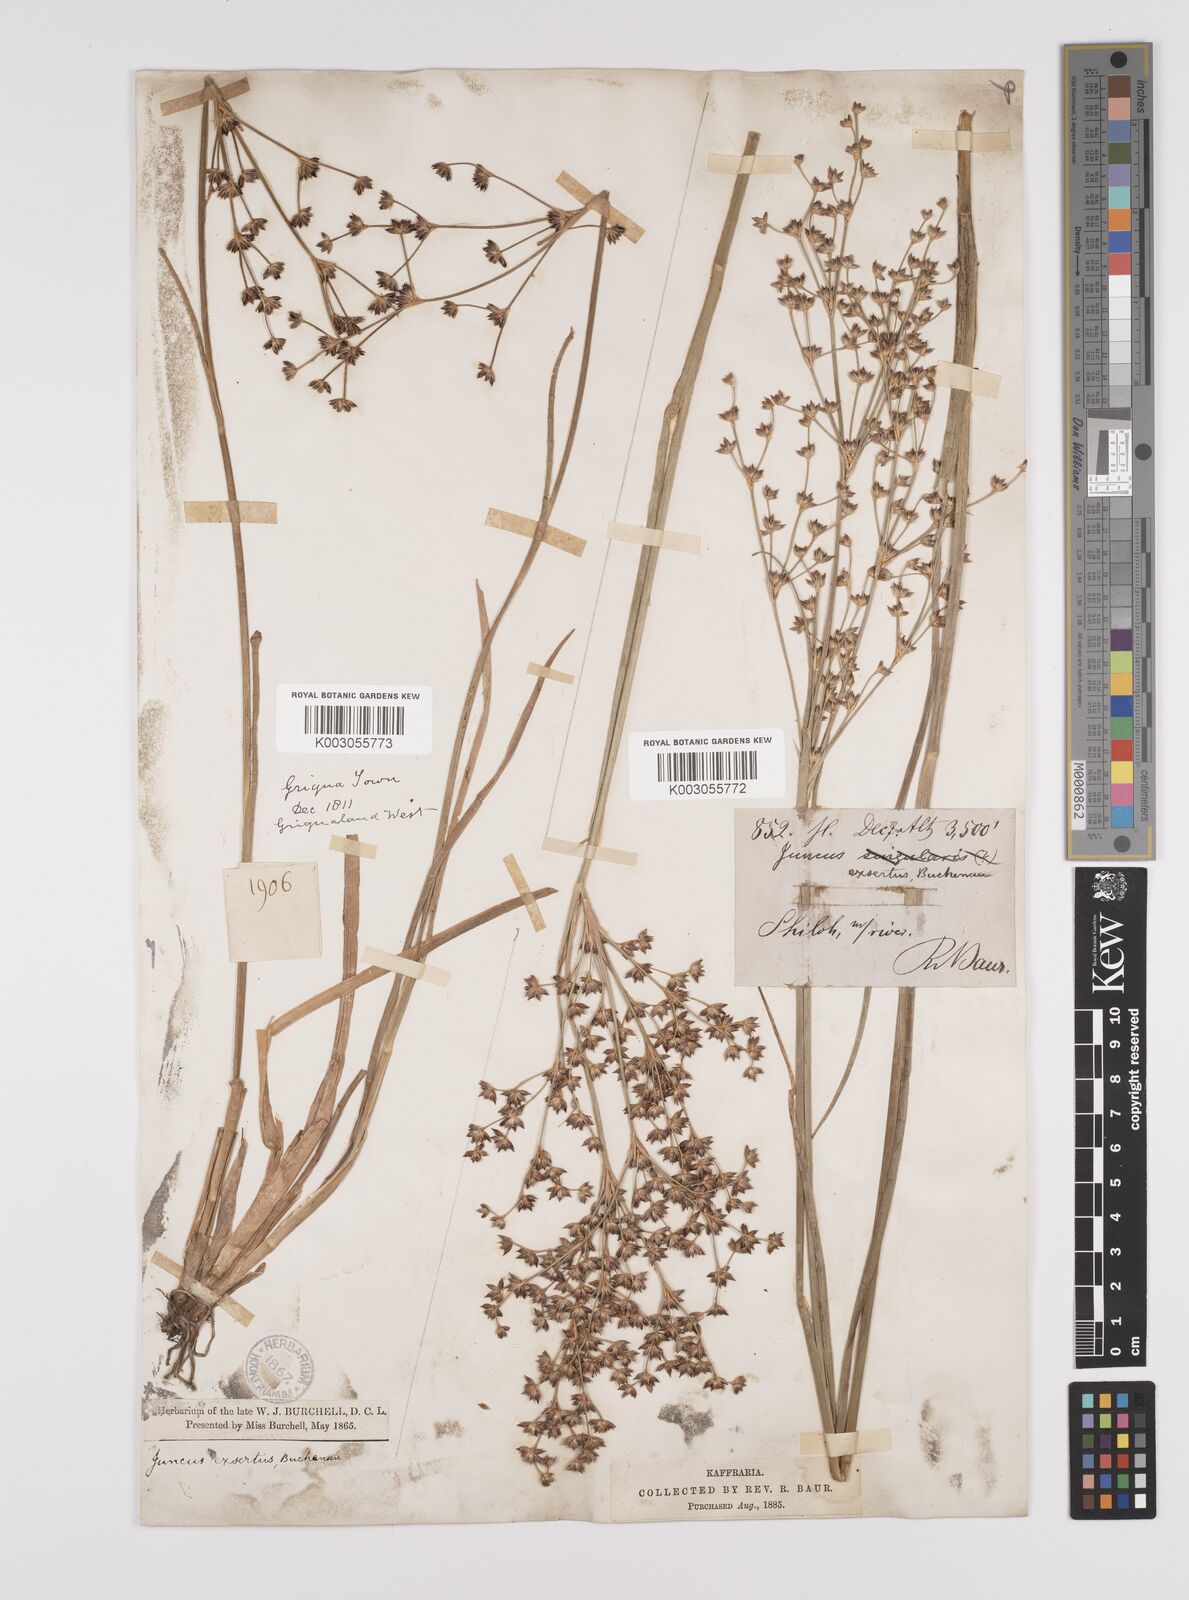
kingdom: Plantae
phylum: Tracheophyta
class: Liliopsida
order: Poales
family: Juncaceae
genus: Juncus
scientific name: Juncus exsertus
